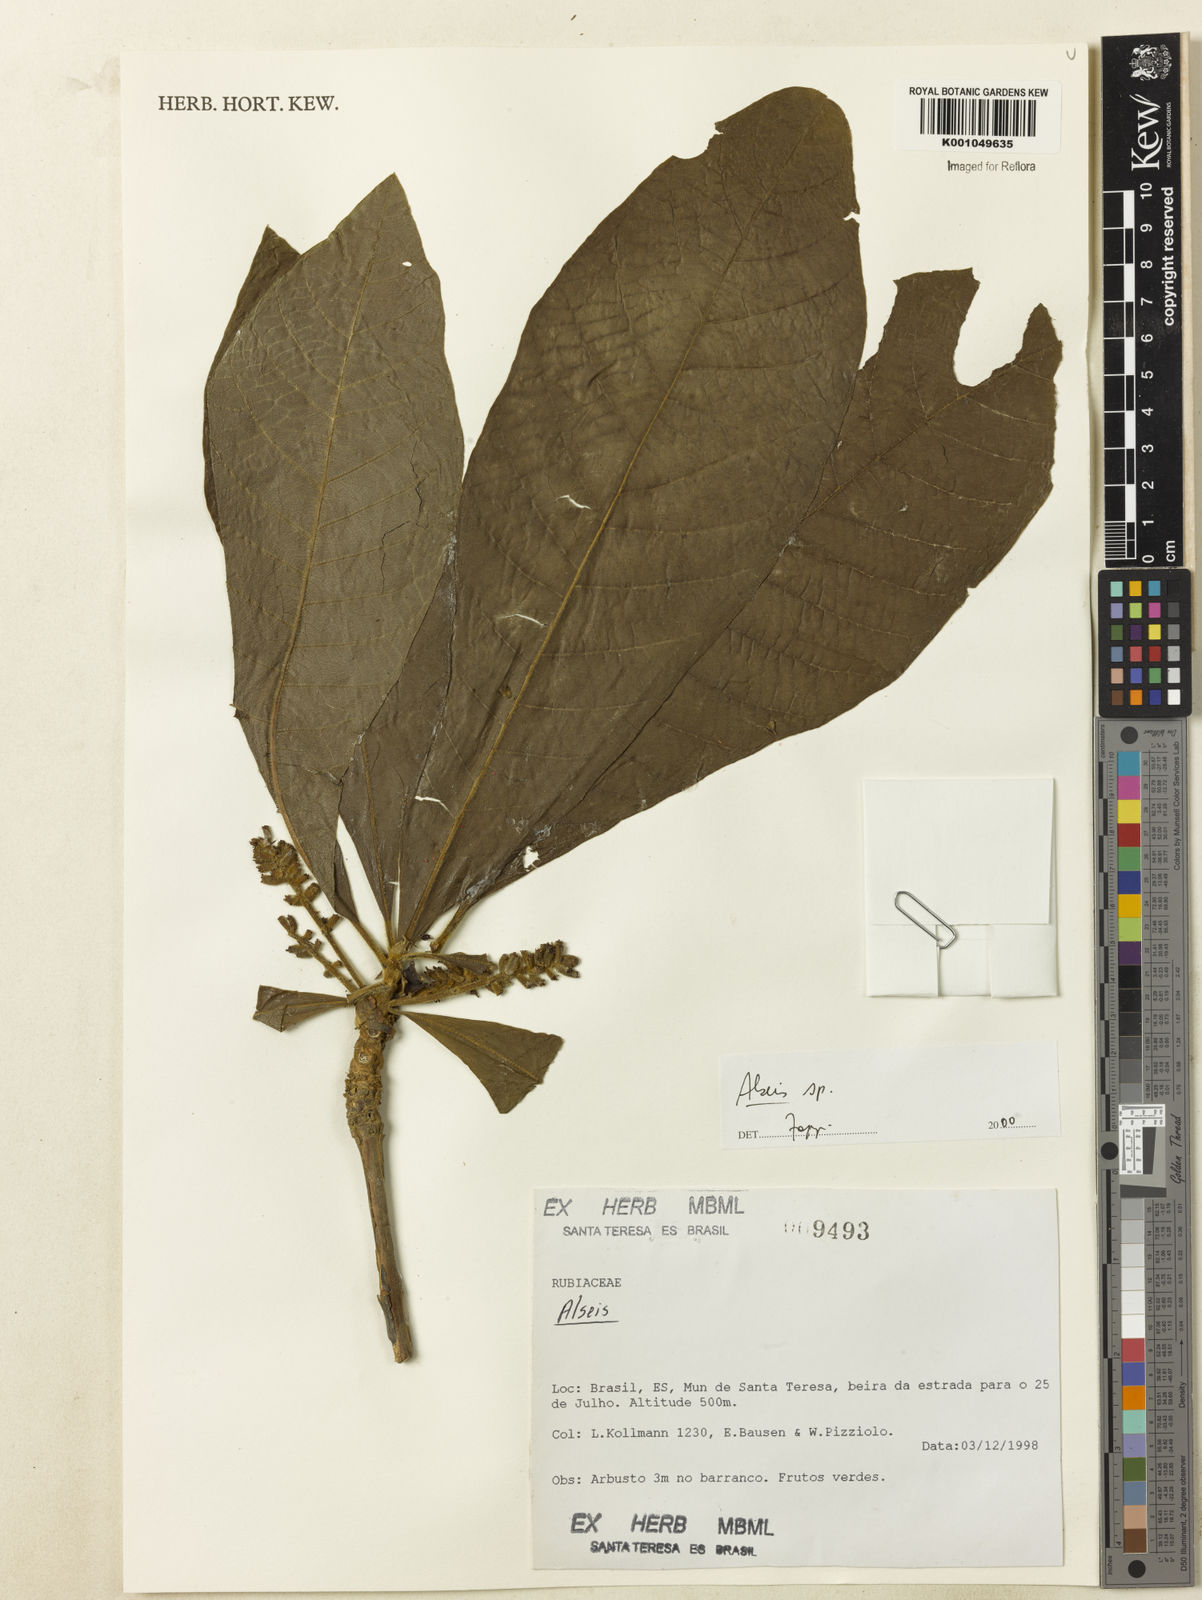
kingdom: Plantae
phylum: Tracheophyta
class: Magnoliopsida
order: Gentianales
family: Rubiaceae
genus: Alseis
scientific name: Alseis
